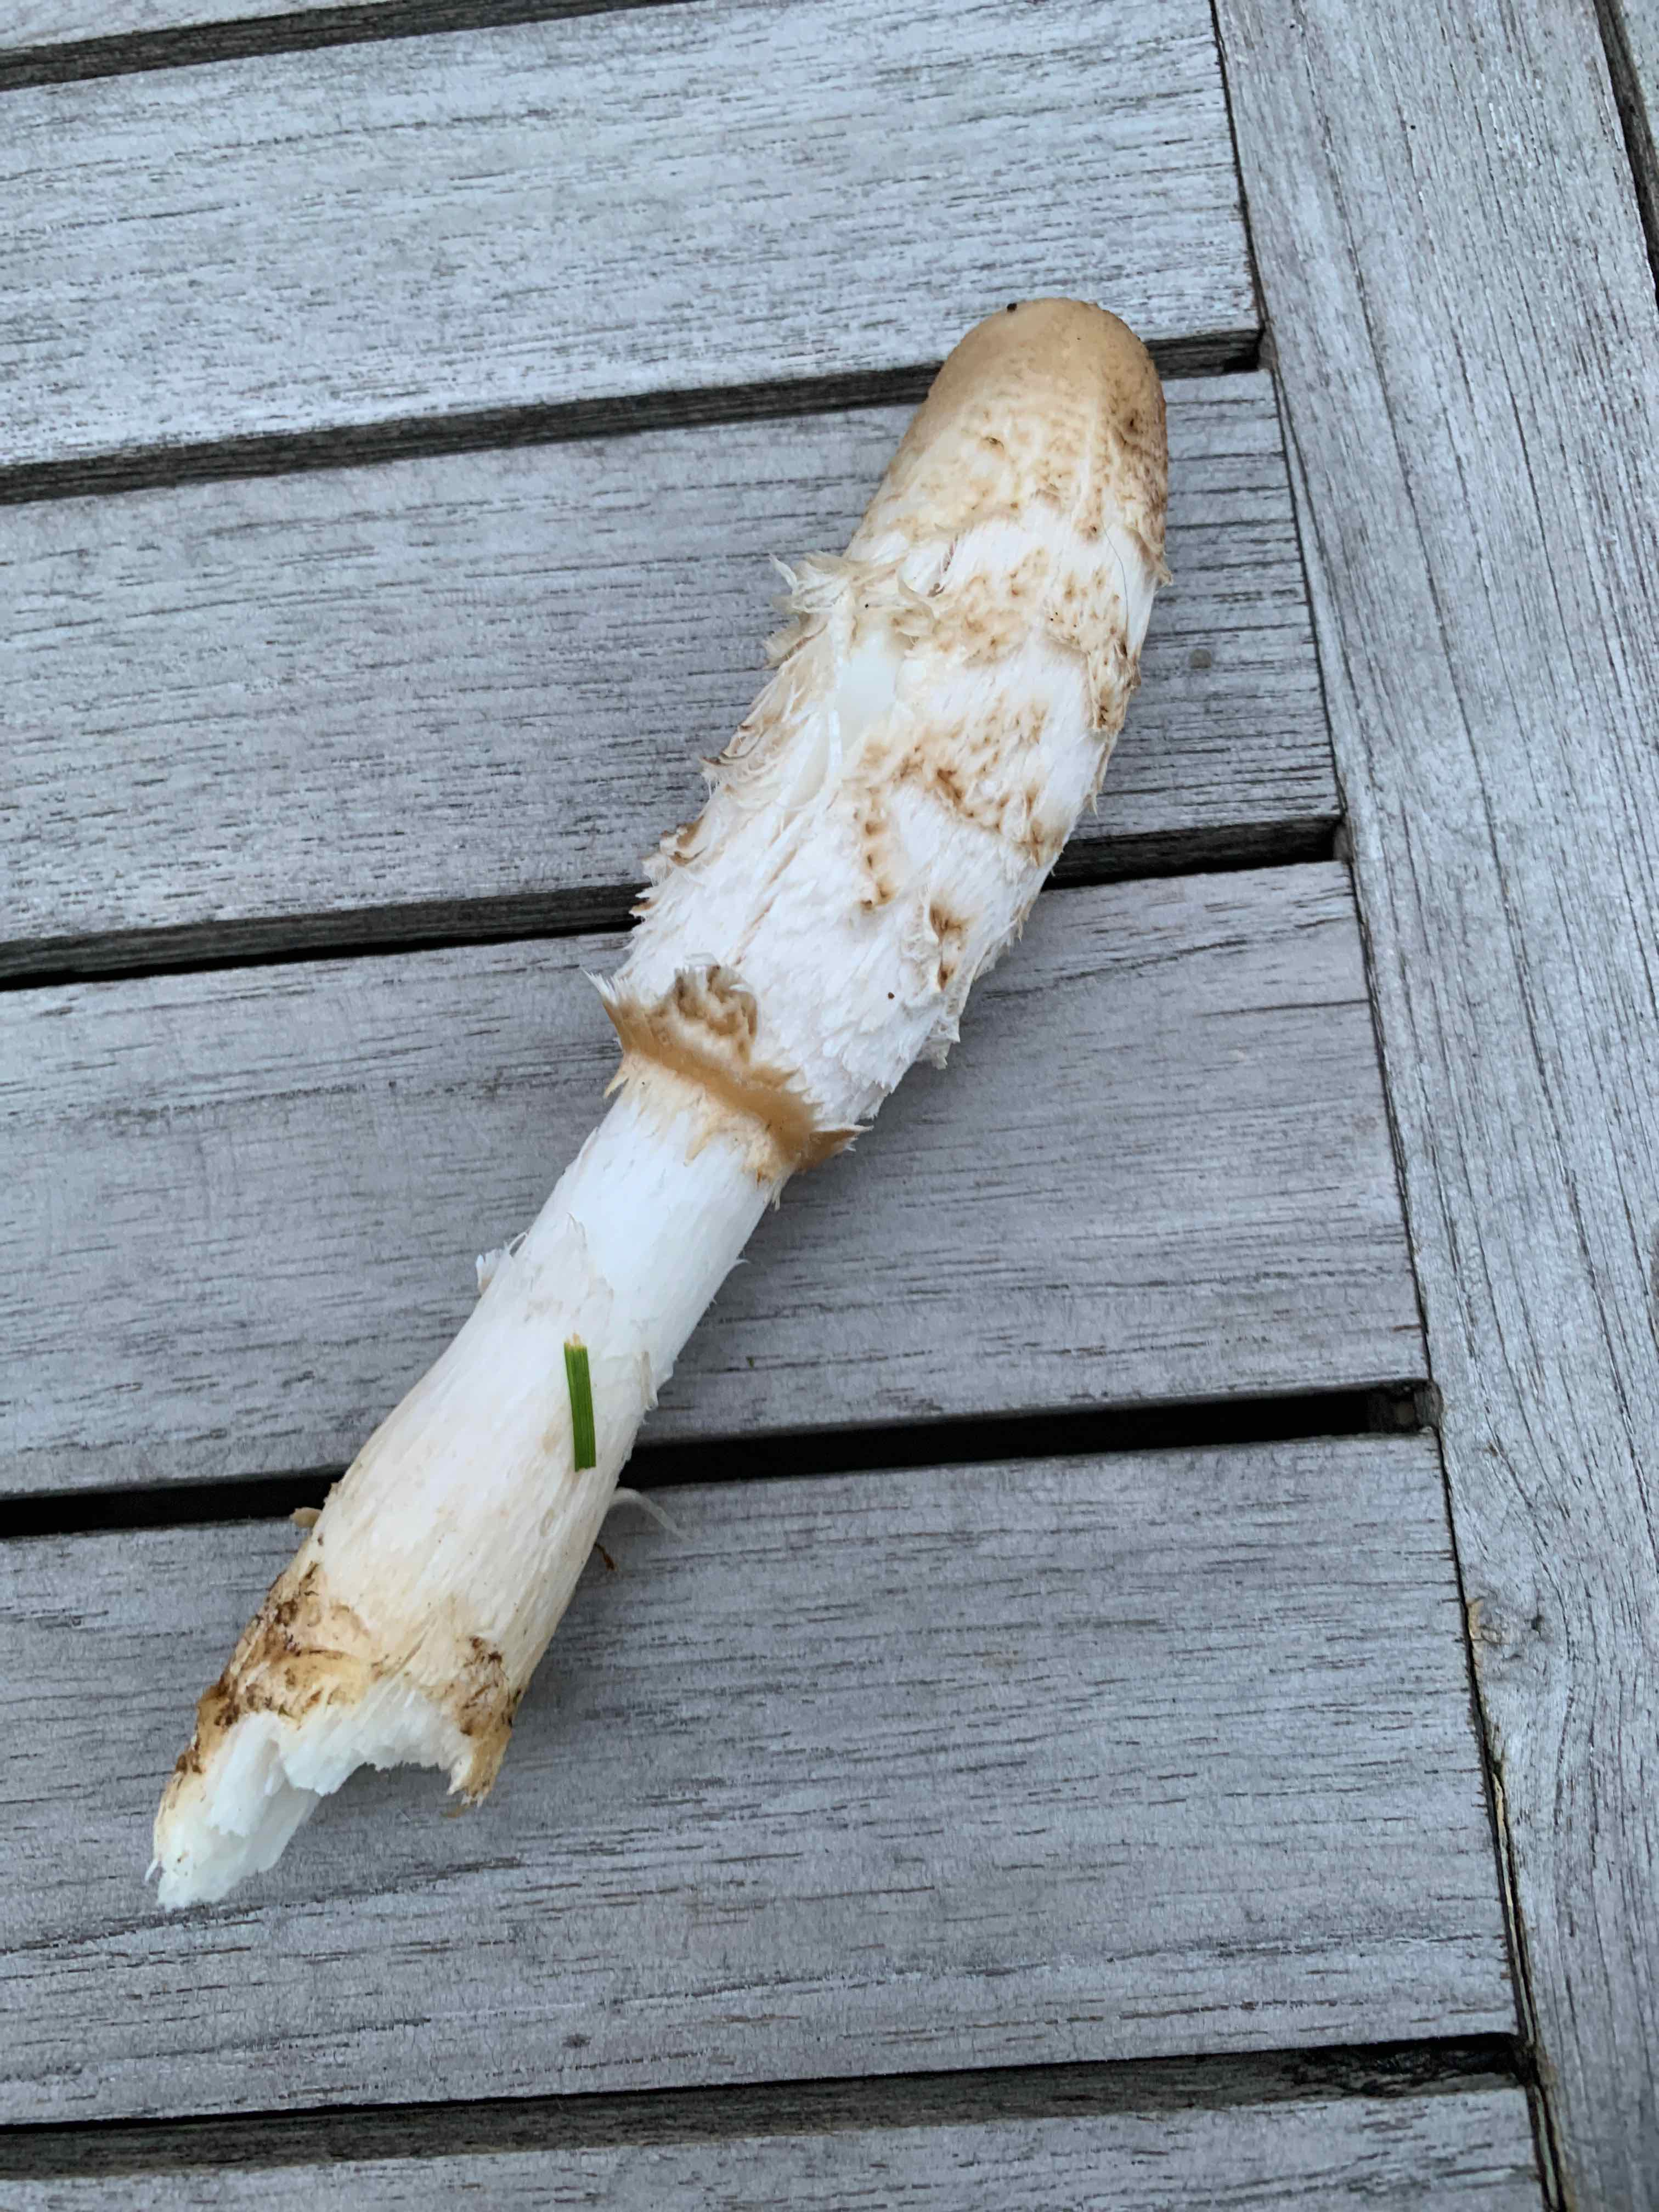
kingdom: Fungi
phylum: Basidiomycota
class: Agaricomycetes
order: Agaricales
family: Agaricaceae
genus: Coprinus
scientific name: Coprinus comatus
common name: stor parykhat
